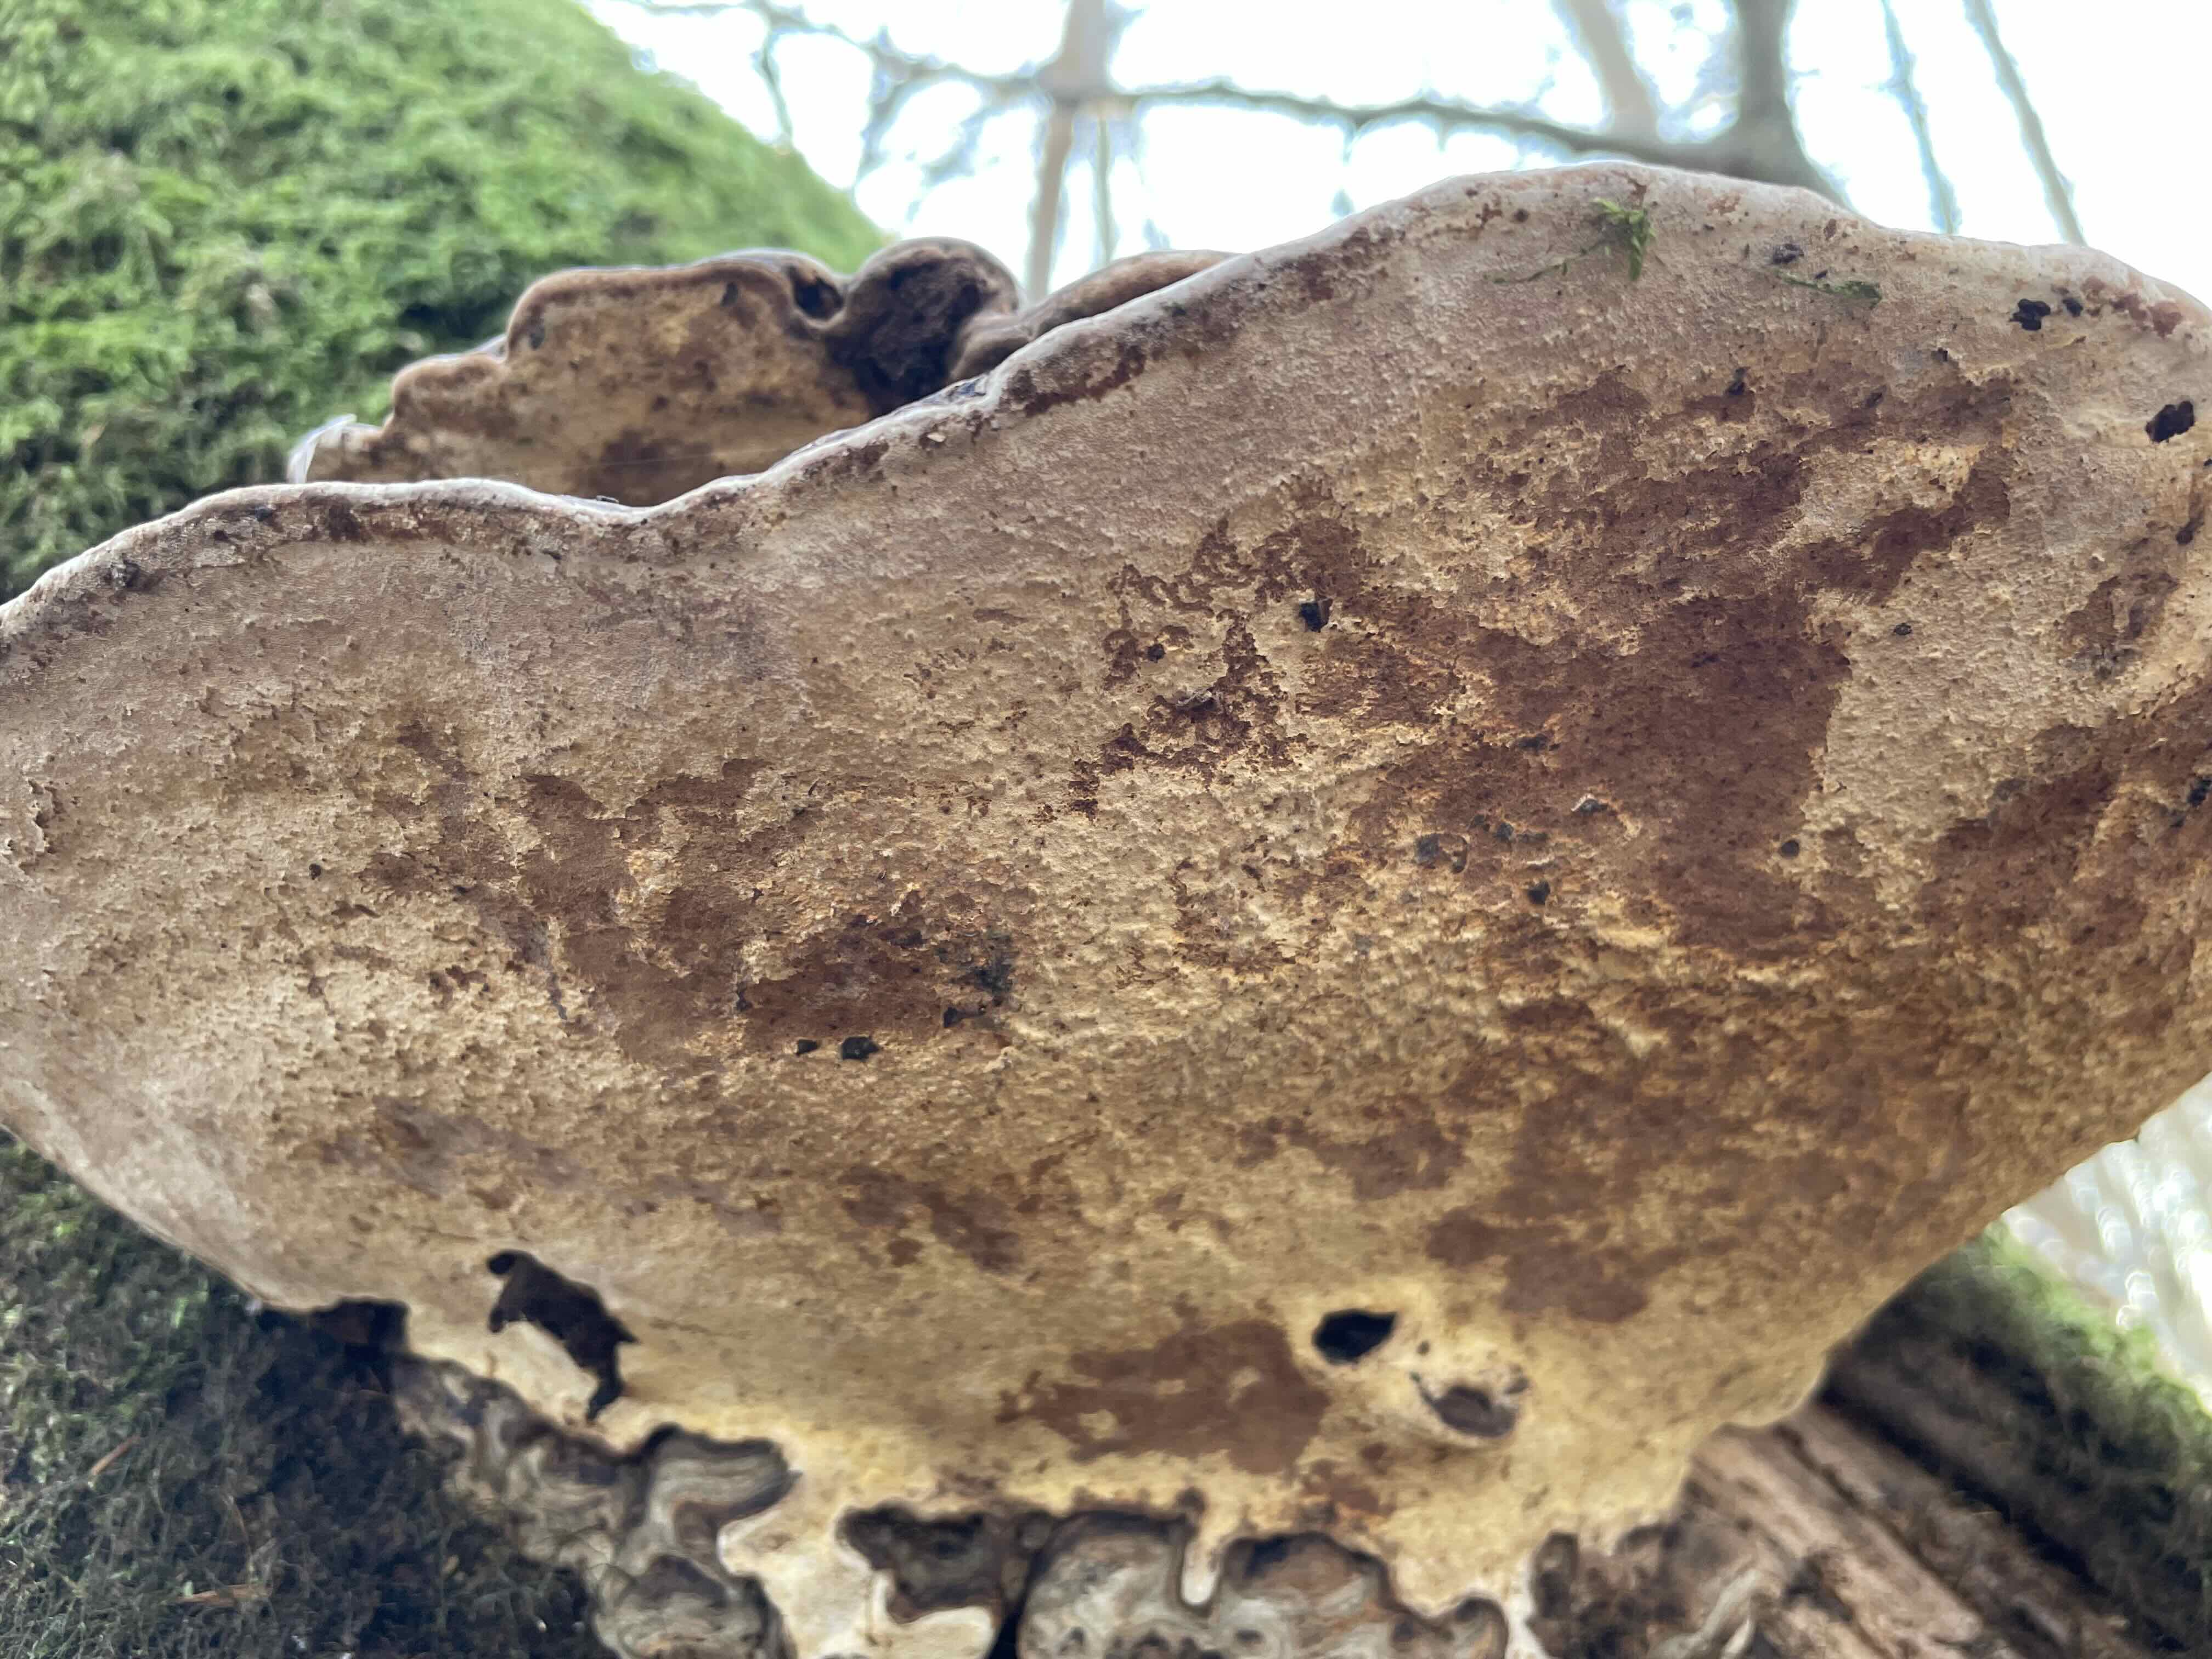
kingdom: Fungi
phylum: Basidiomycota
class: Agaricomycetes
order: Polyporales
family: Polyporaceae
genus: Ganoderma
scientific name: Ganoderma applanatum
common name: flad lakporesvamp
